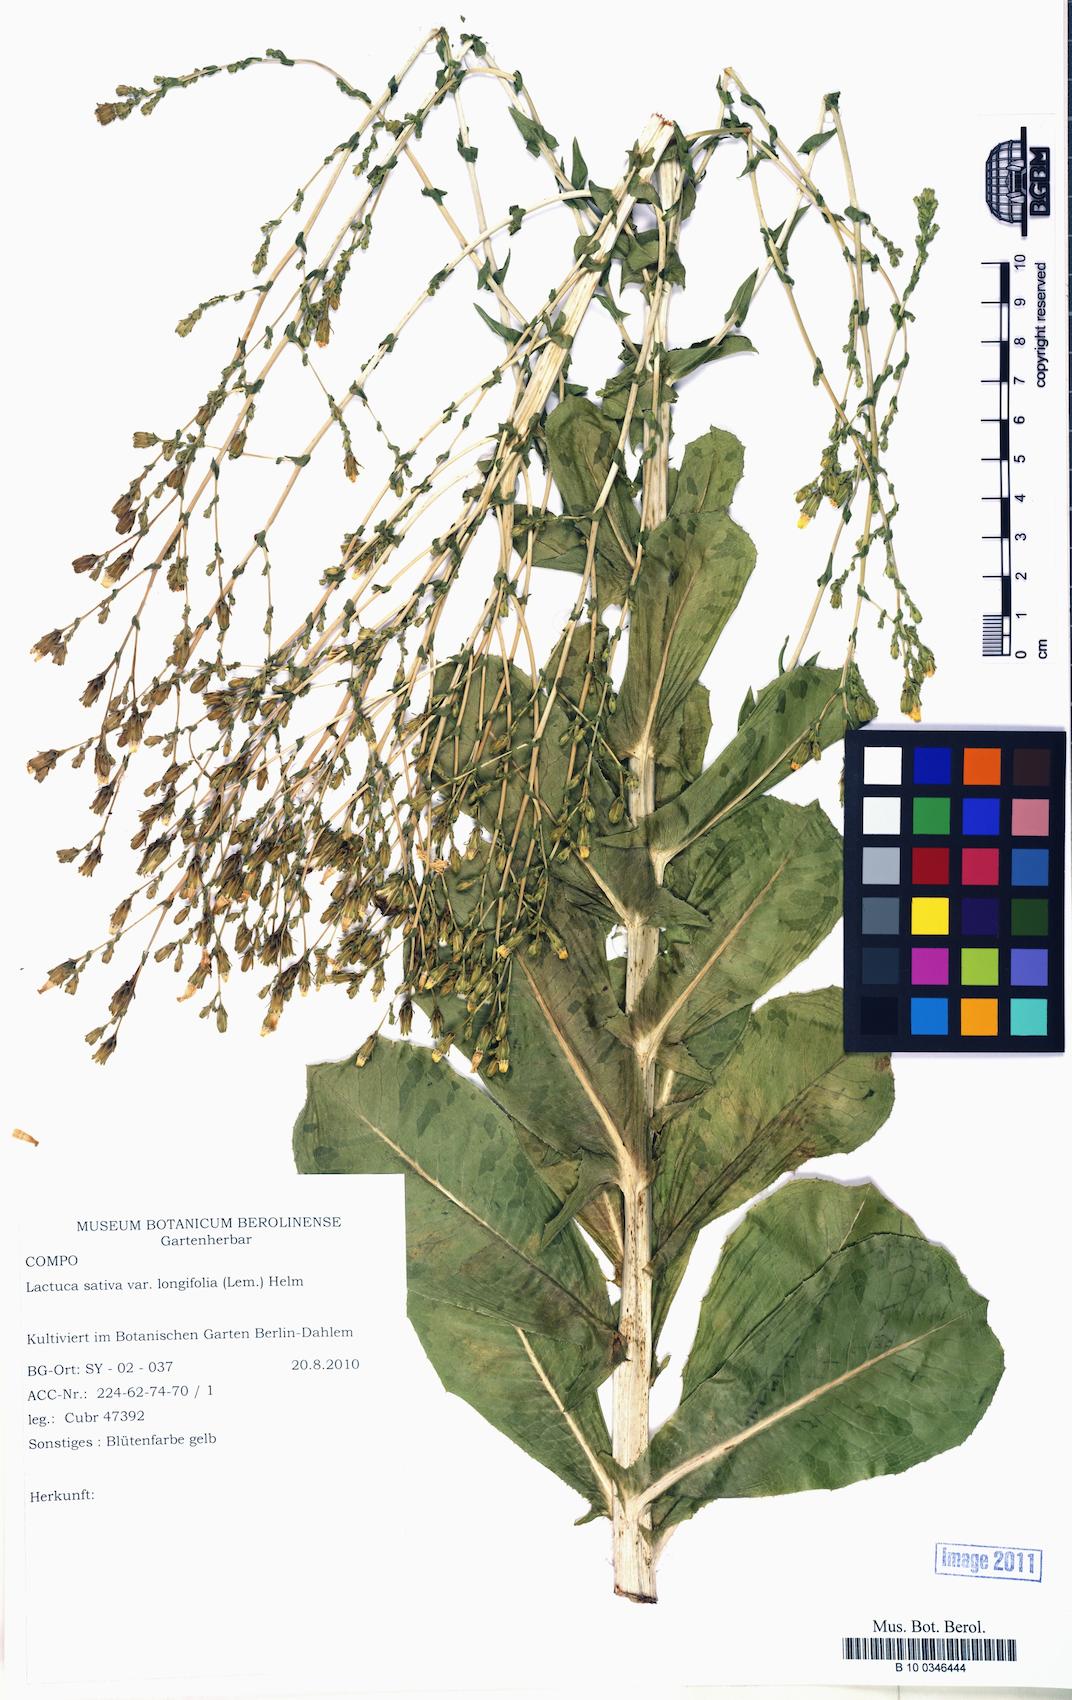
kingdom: Plantae
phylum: Tracheophyta
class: Magnoliopsida
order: Asterales
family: Asteraceae
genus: Lactuca
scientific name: Lactuca sativa
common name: Garden lettuce
